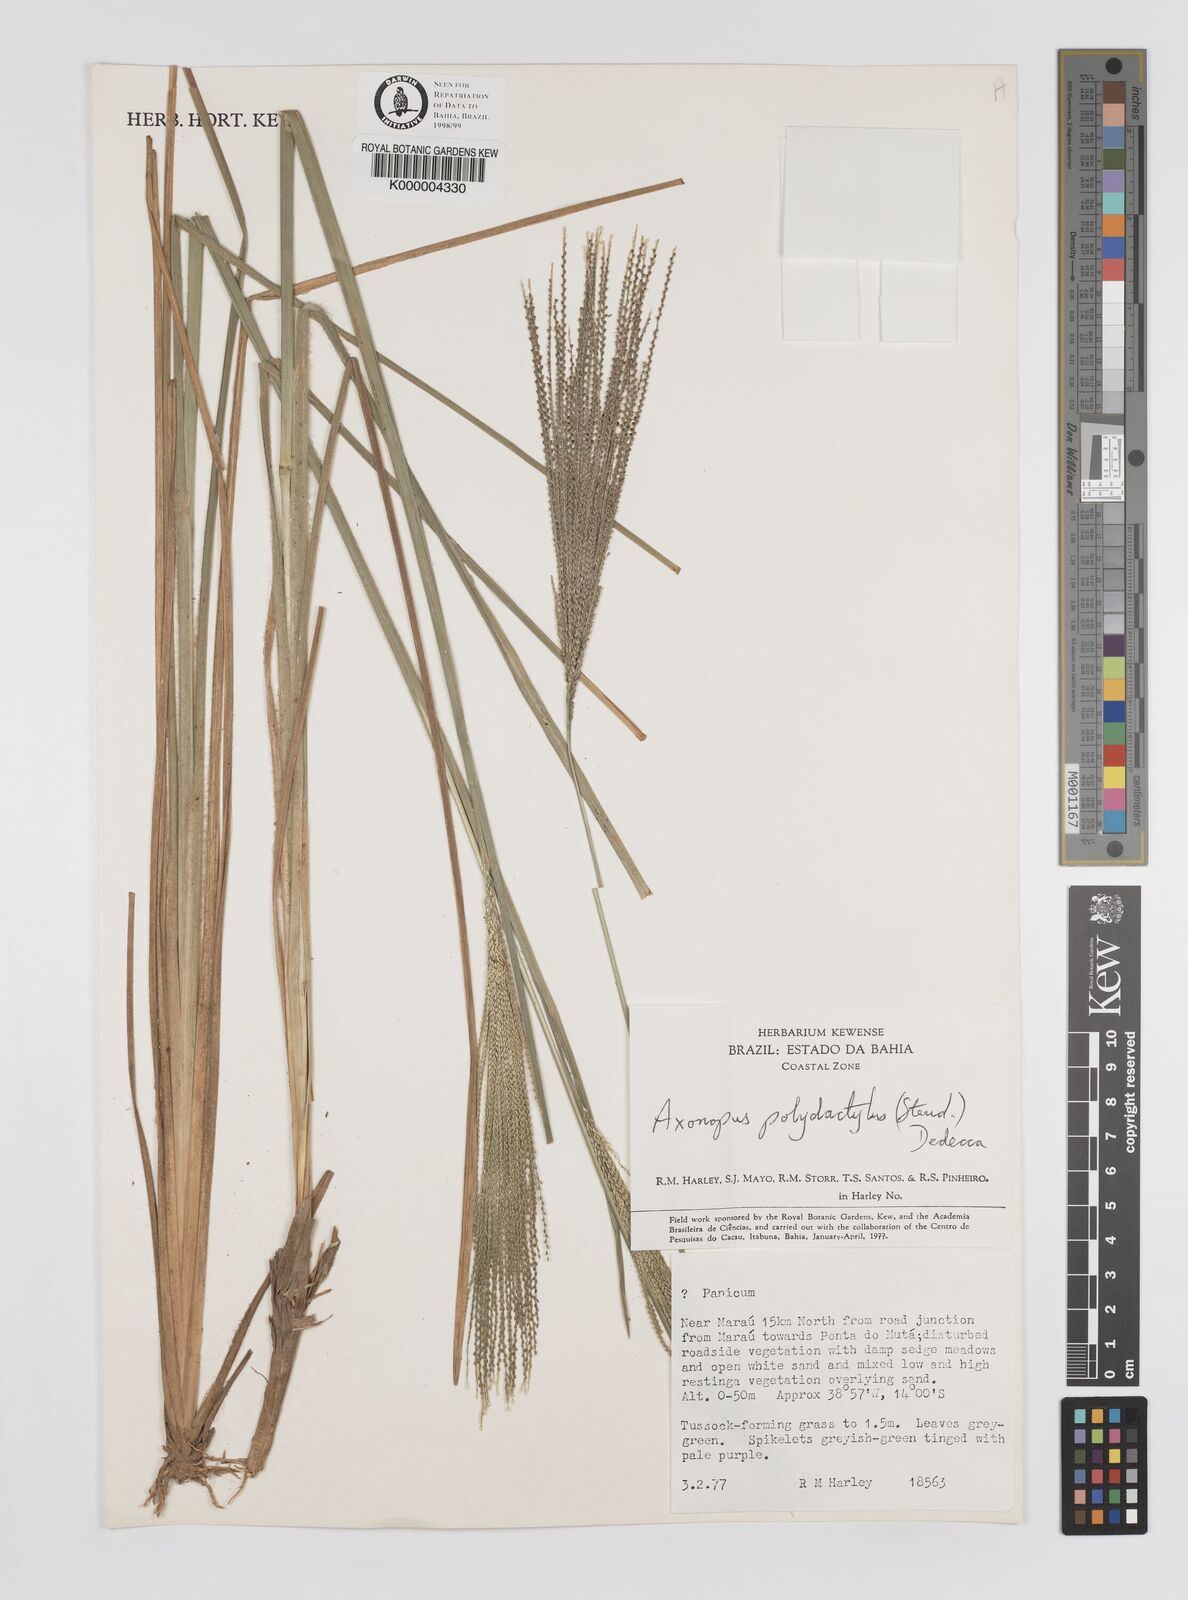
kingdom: Plantae
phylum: Tracheophyta
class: Liliopsida
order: Poales
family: Poaceae
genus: Axonopus
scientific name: Axonopus polydactylus
